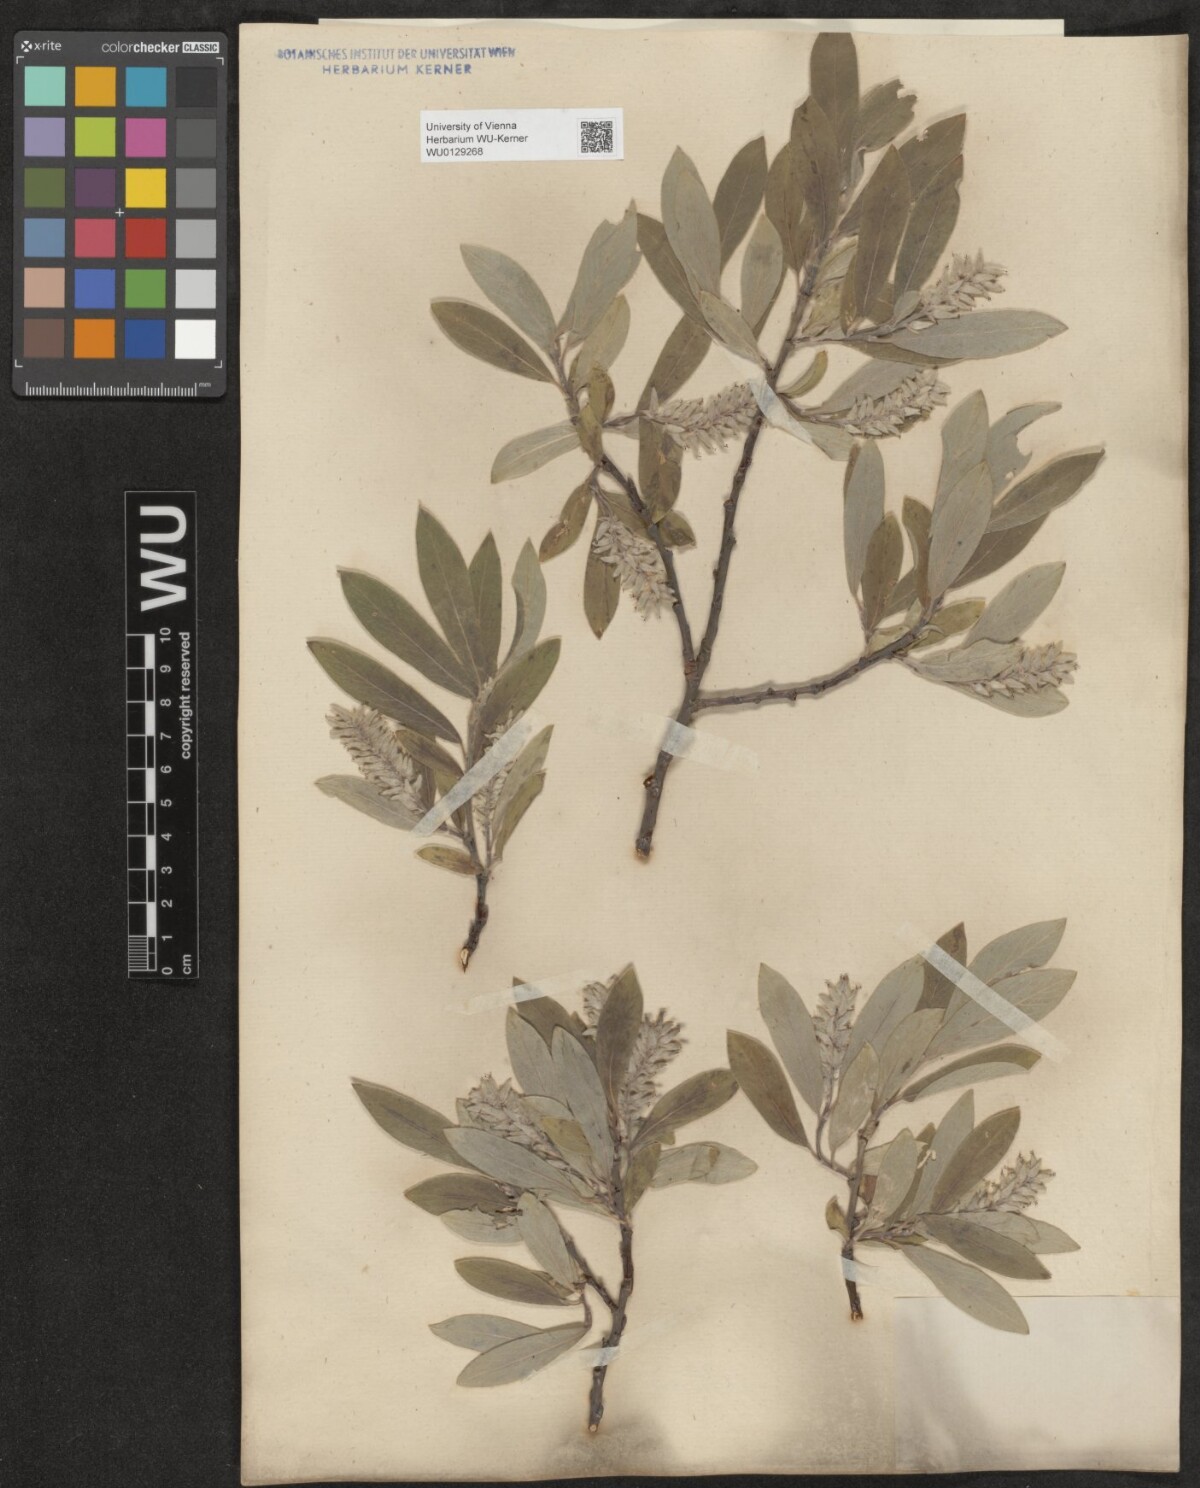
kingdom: Plantae
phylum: Tracheophyta
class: Magnoliopsida
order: Malpighiales
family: Salicaceae
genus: Salix
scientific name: Salix glauca
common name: Glaucous willow
